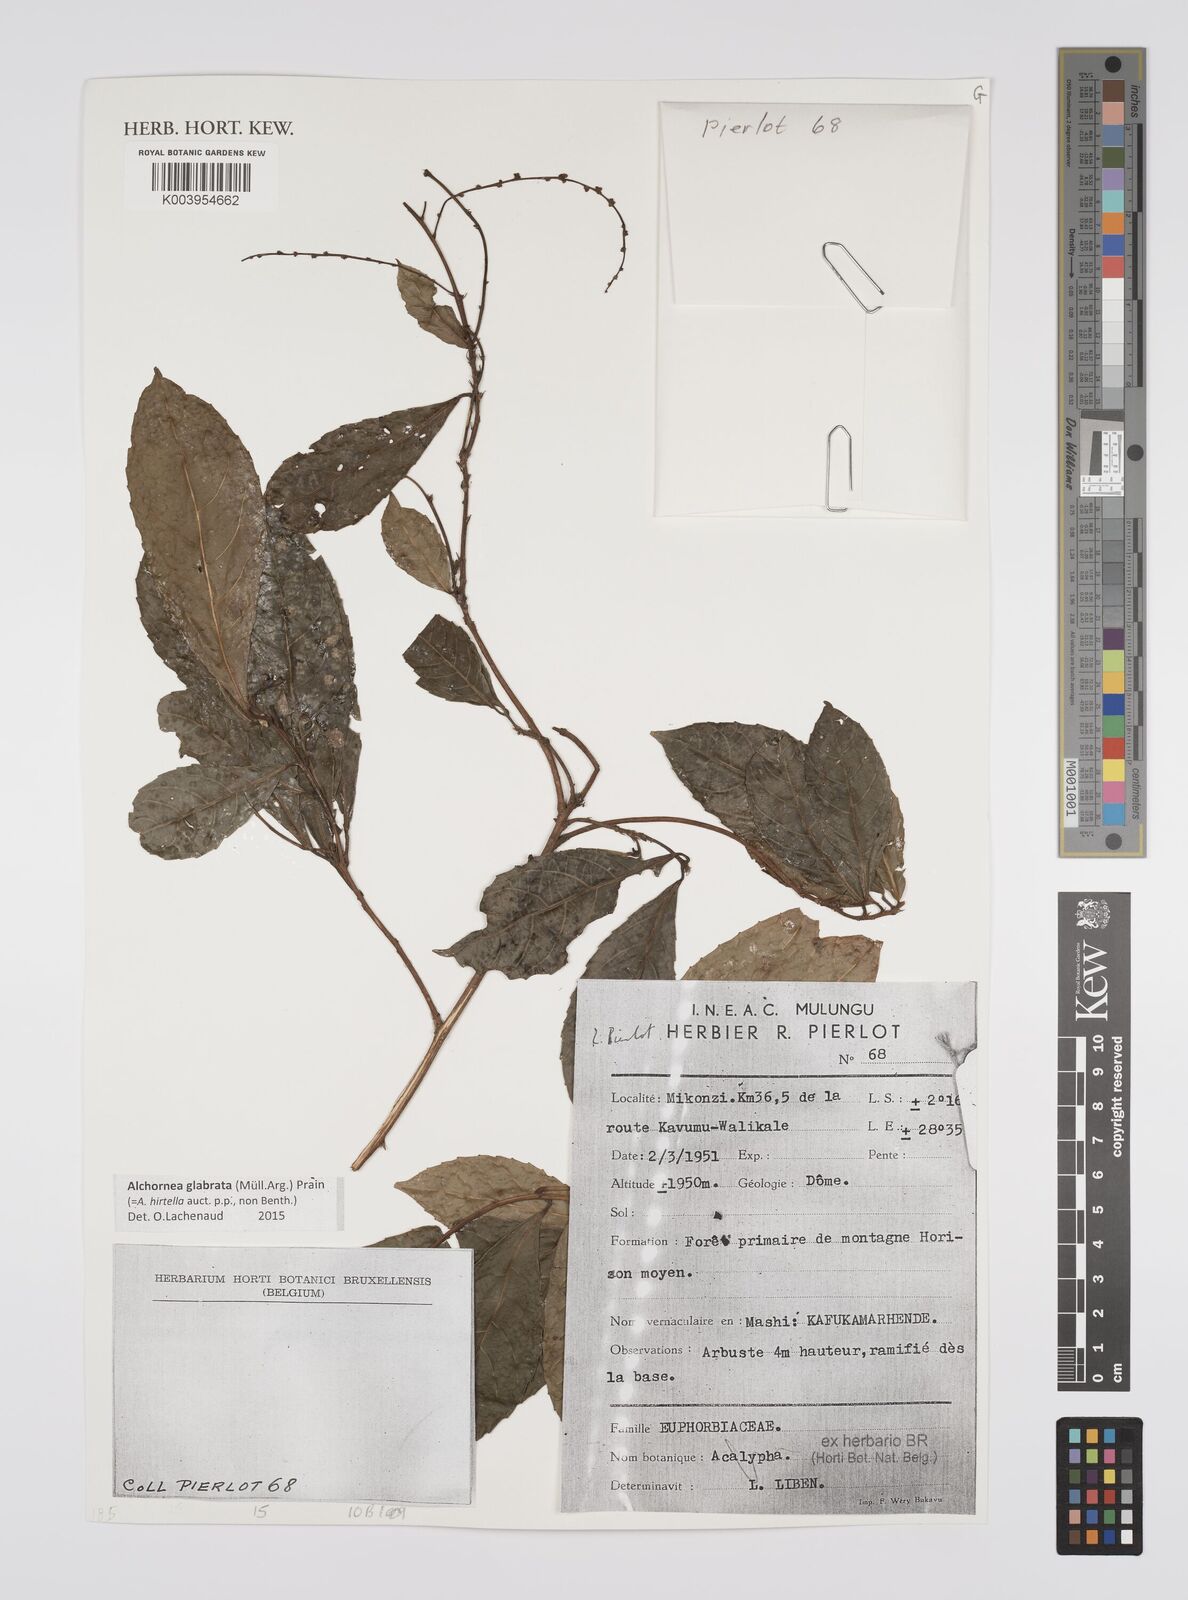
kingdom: Plantae
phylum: Tracheophyta
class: Magnoliopsida
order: Malpighiales
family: Euphorbiaceae
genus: Alchornea
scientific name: Alchornea hirtella
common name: Forest bead-string
